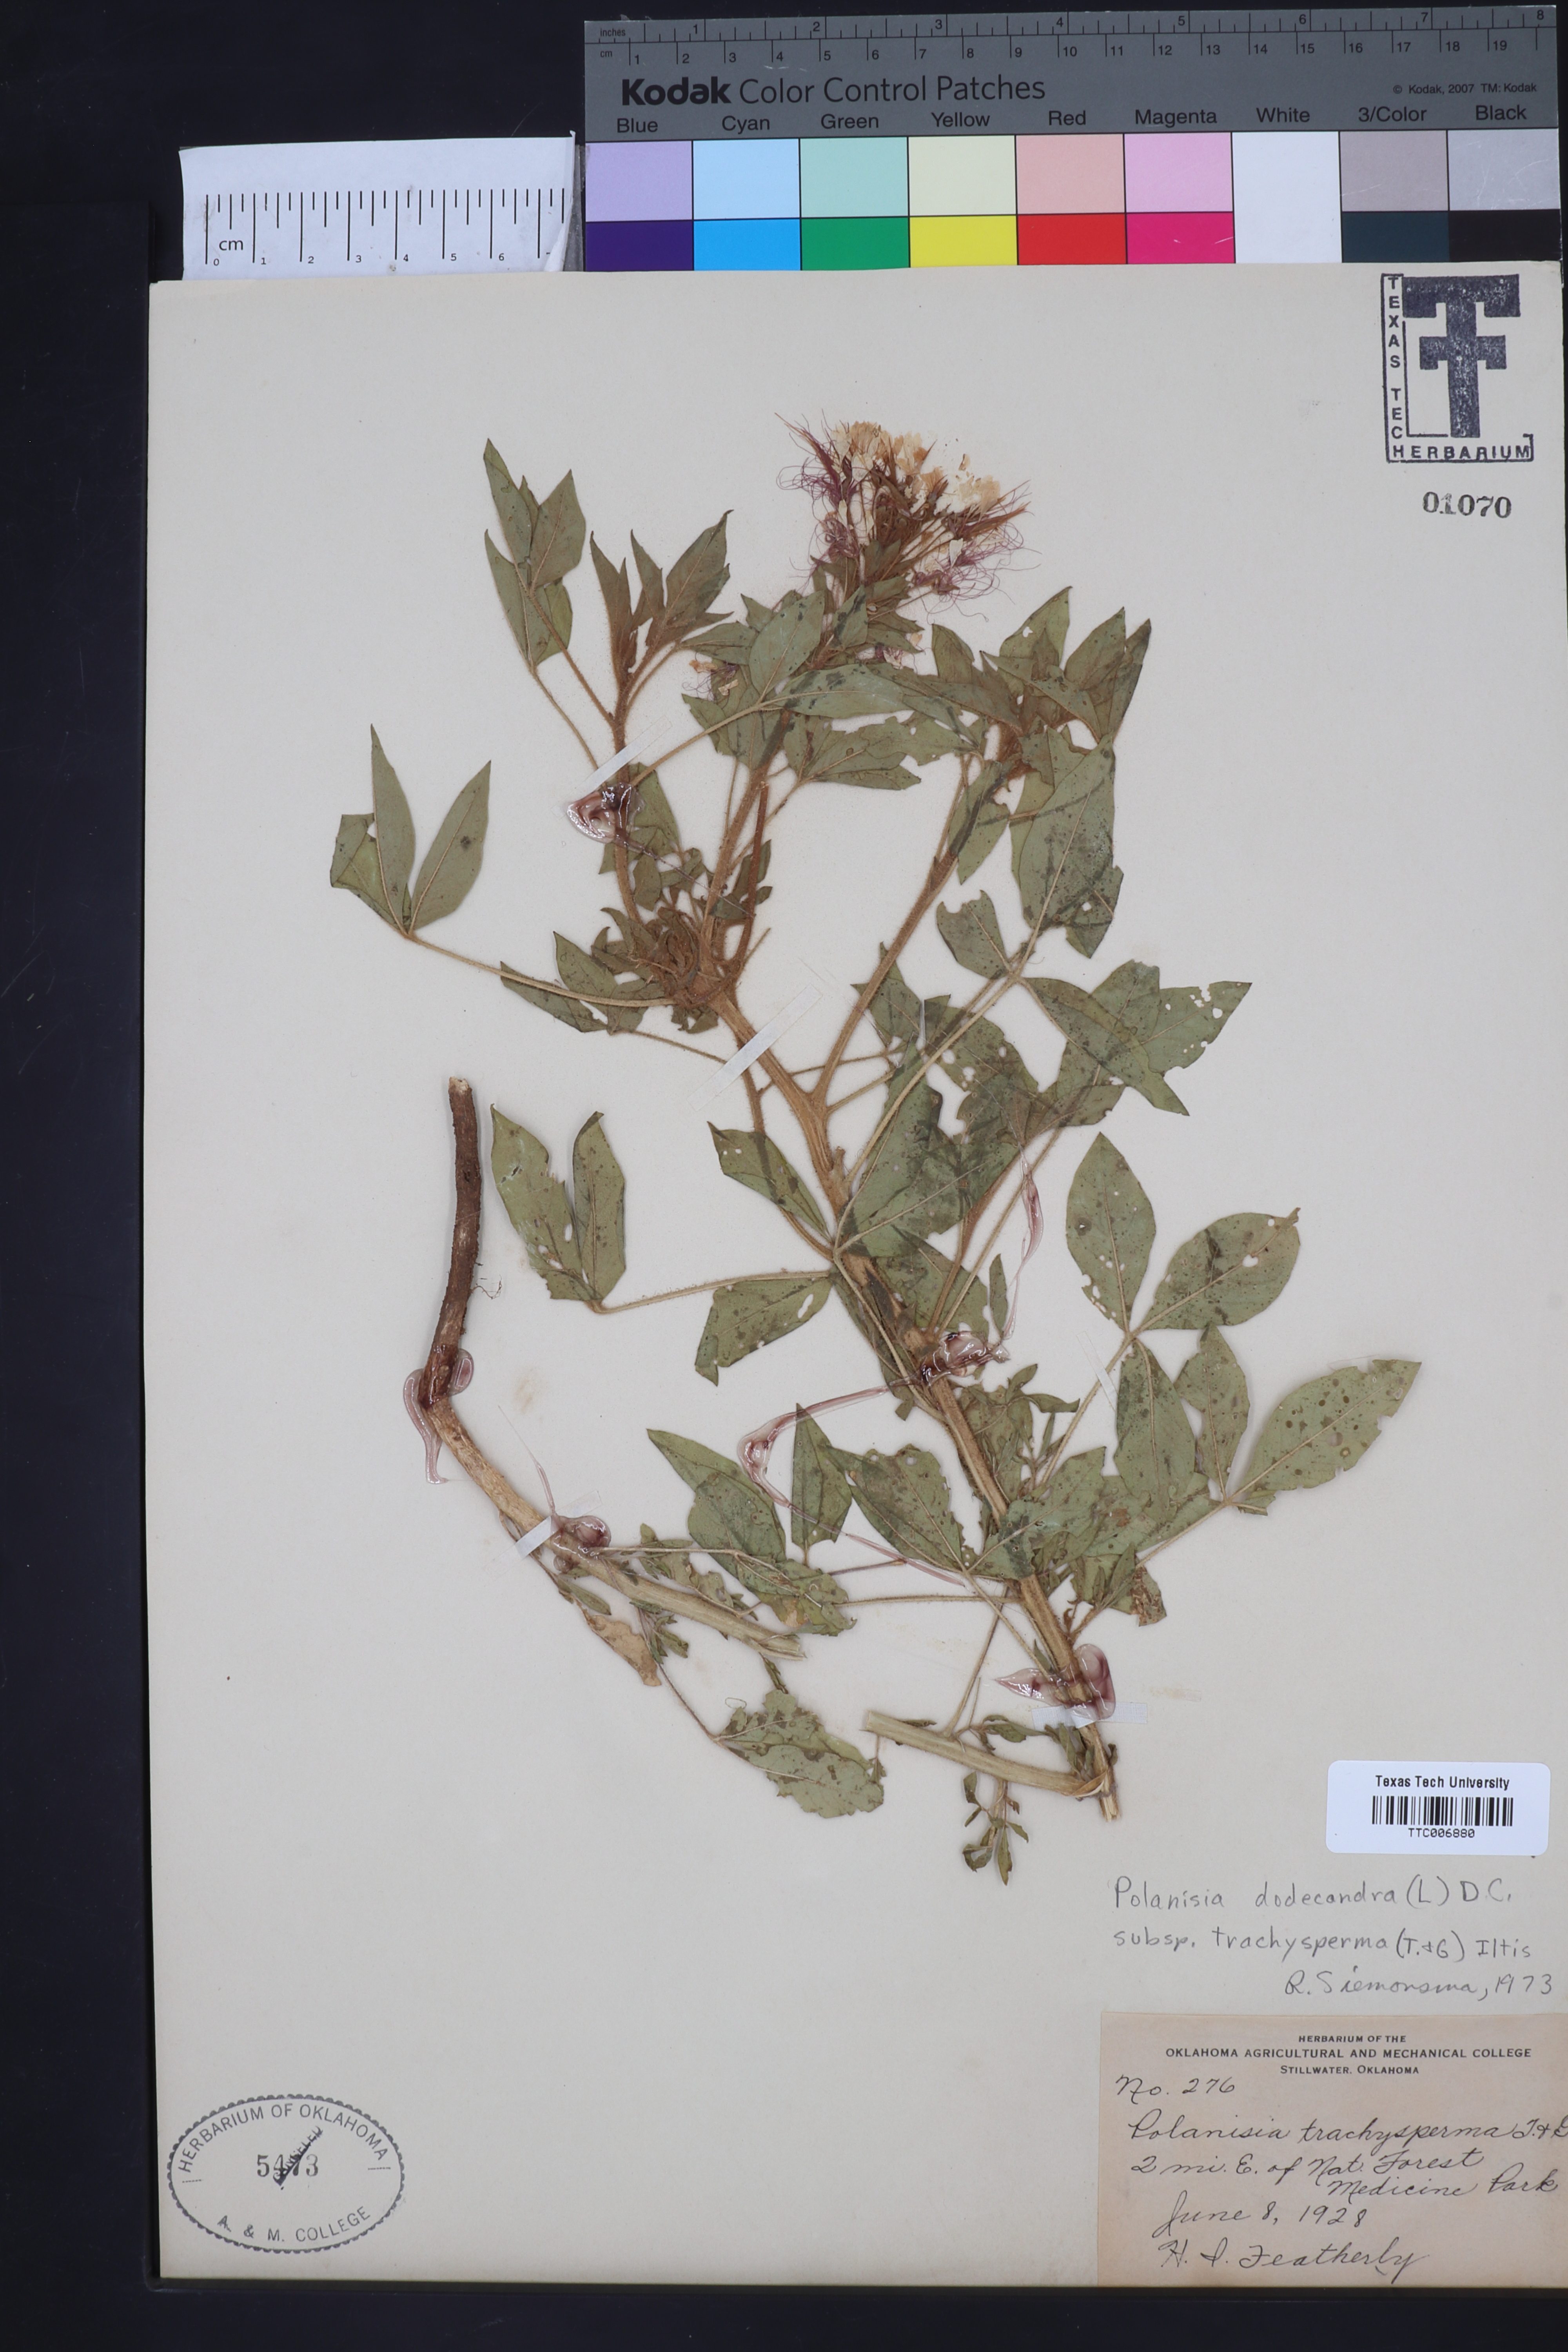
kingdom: Plantae
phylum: Tracheophyta
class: Magnoliopsida
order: Brassicales
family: Cleomaceae
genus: Polanisia
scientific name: Polanisia trachysperma
